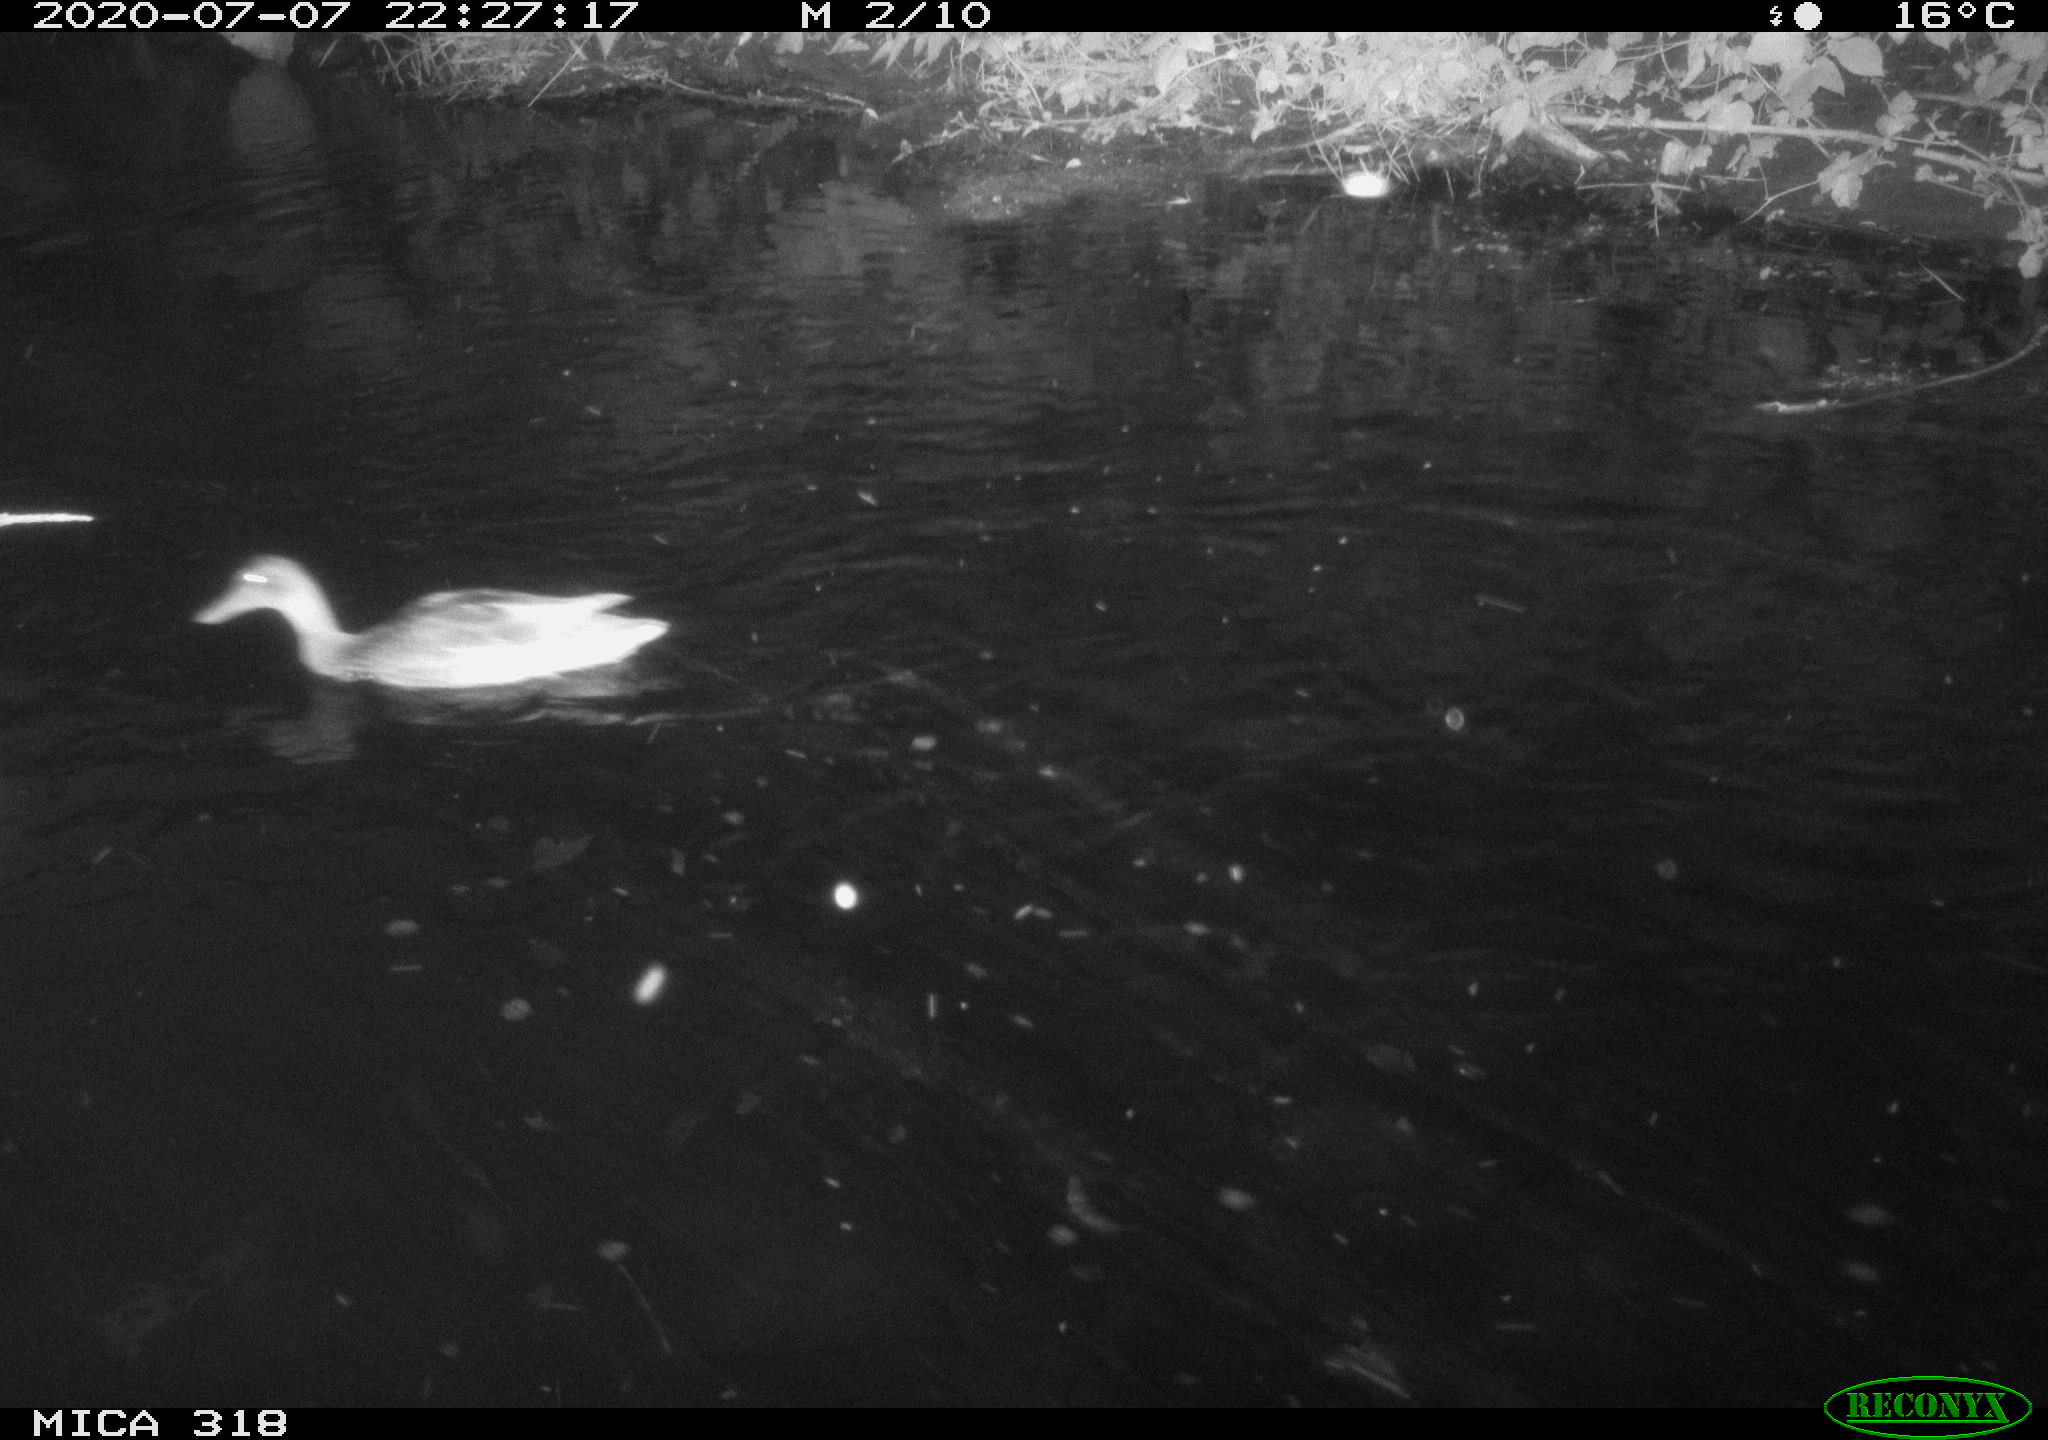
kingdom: Animalia
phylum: Chordata
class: Aves
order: Anseriformes
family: Anatidae
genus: Mareca
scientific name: Mareca strepera
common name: Gadwall
